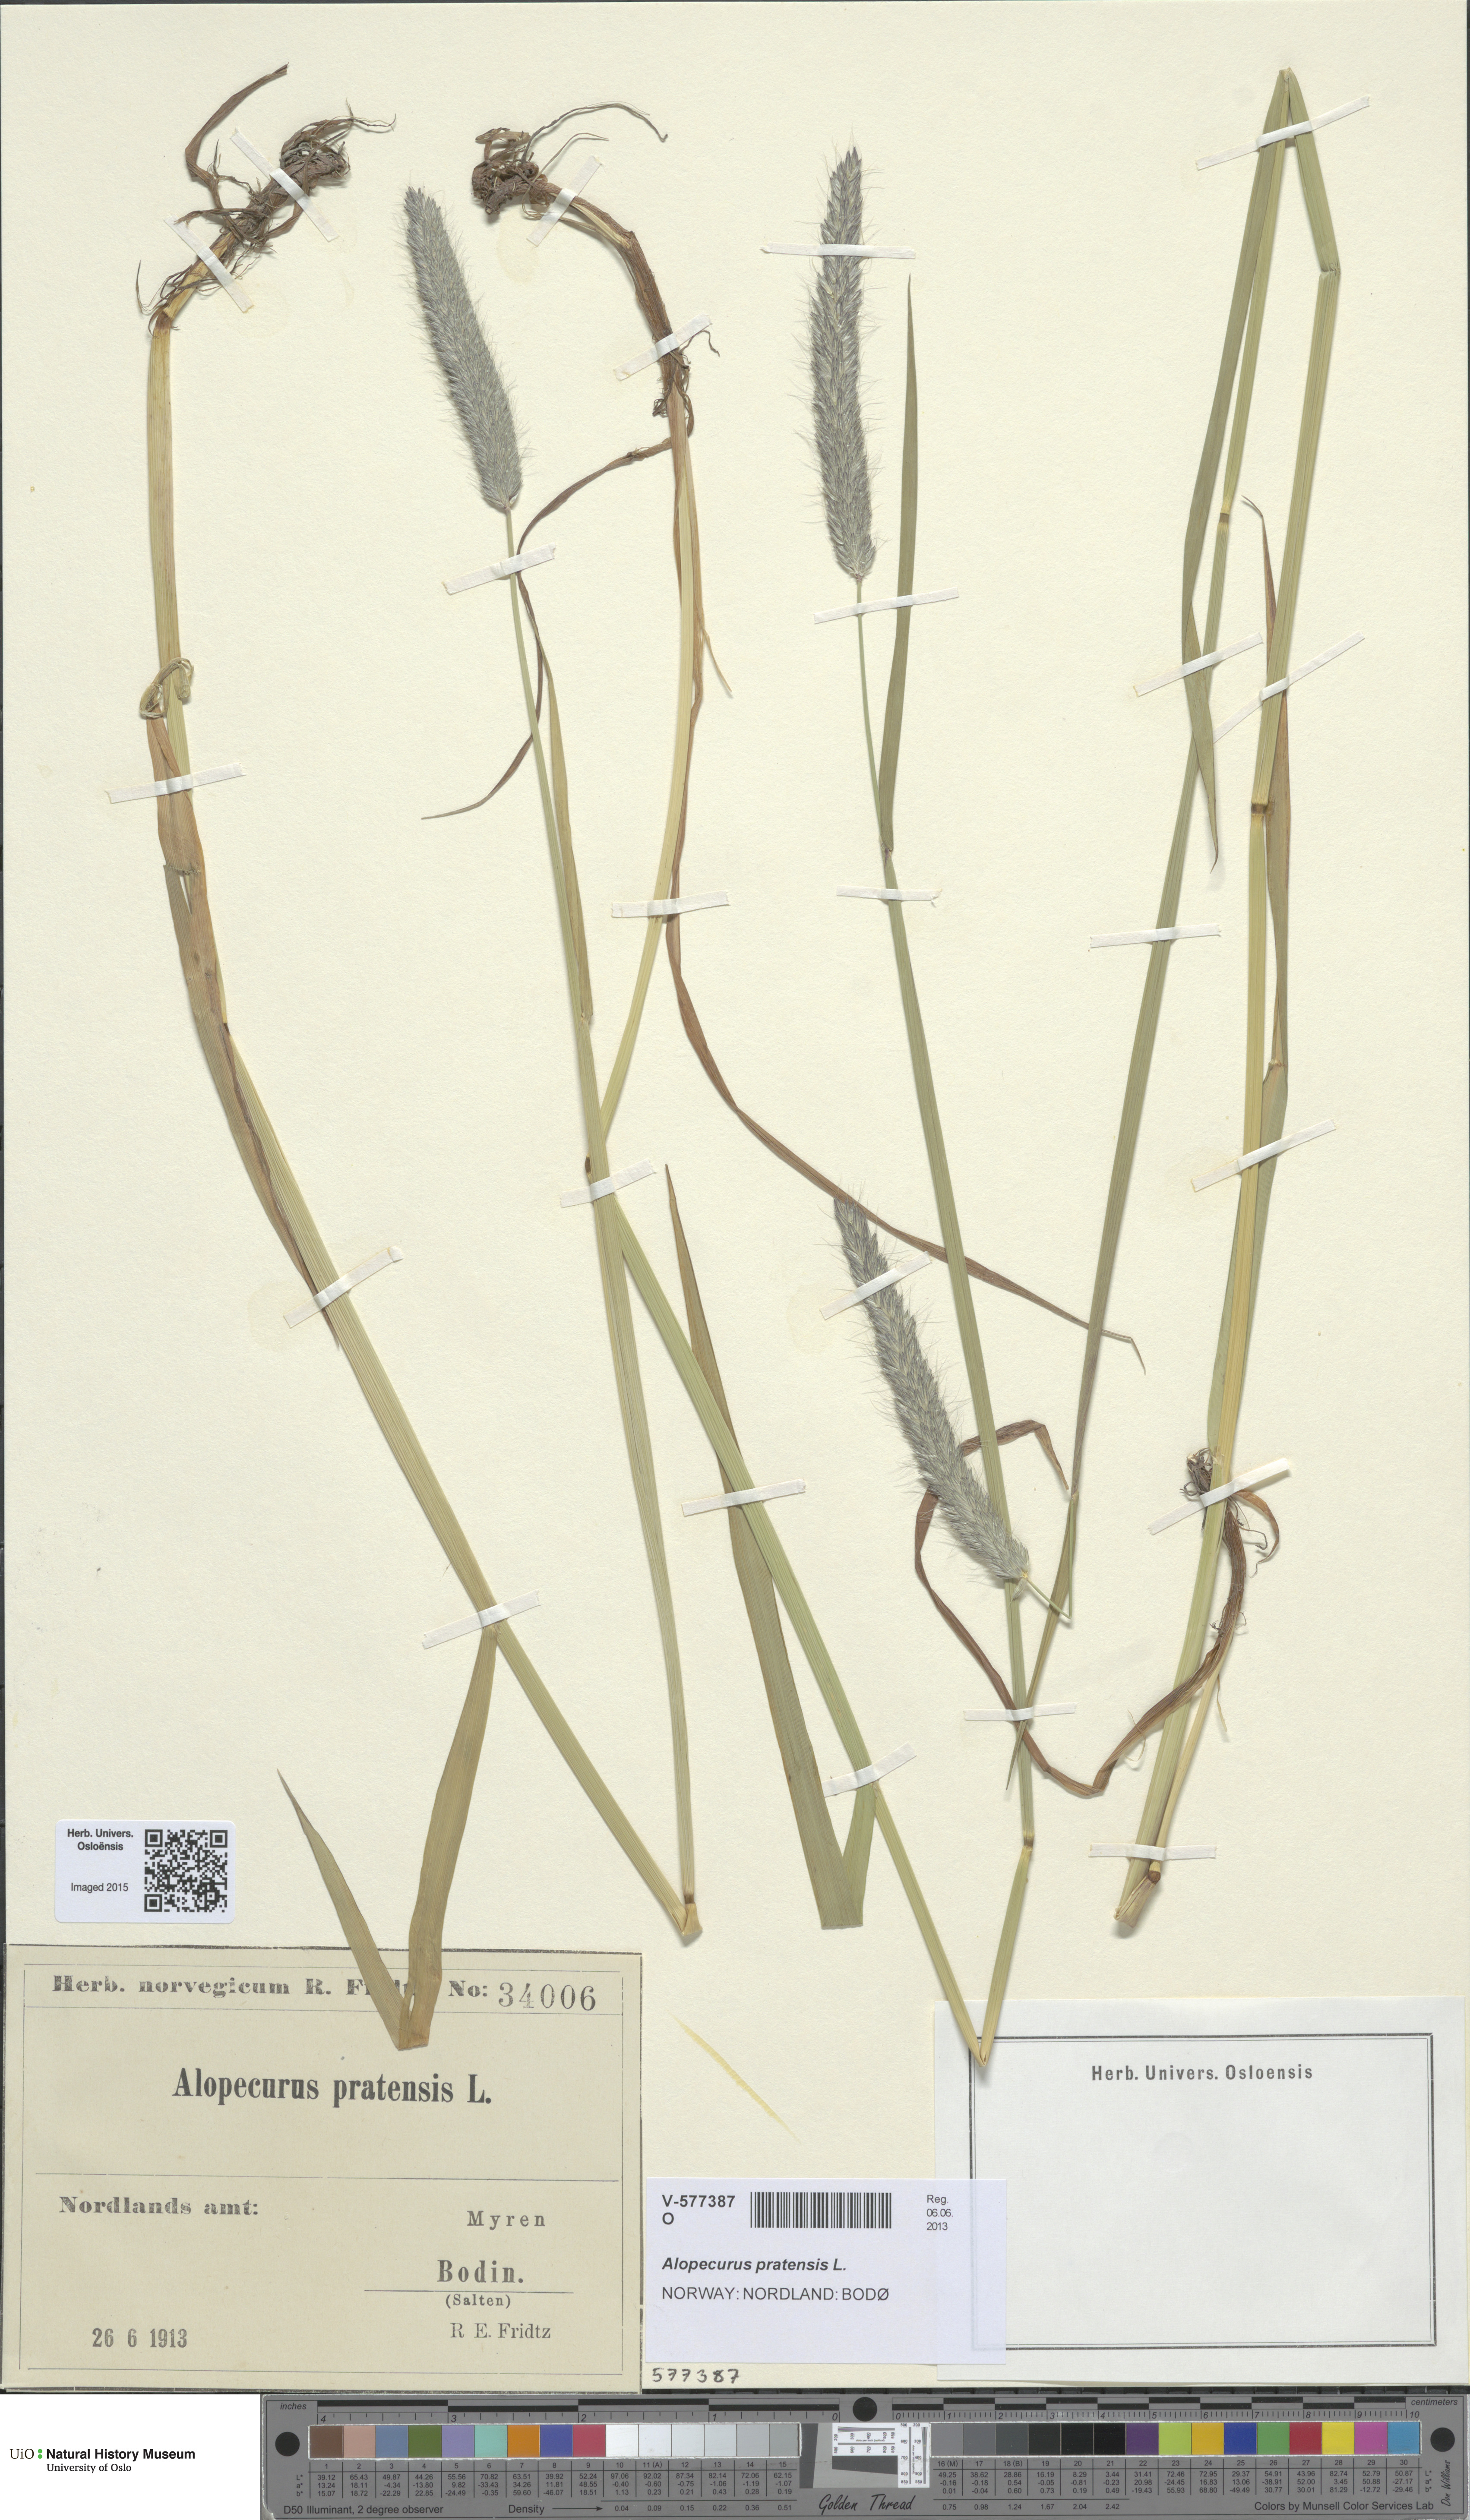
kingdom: Plantae
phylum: Tracheophyta
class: Liliopsida
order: Poales
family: Poaceae
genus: Alopecurus
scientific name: Alopecurus pratensis
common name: Meadow foxtail
